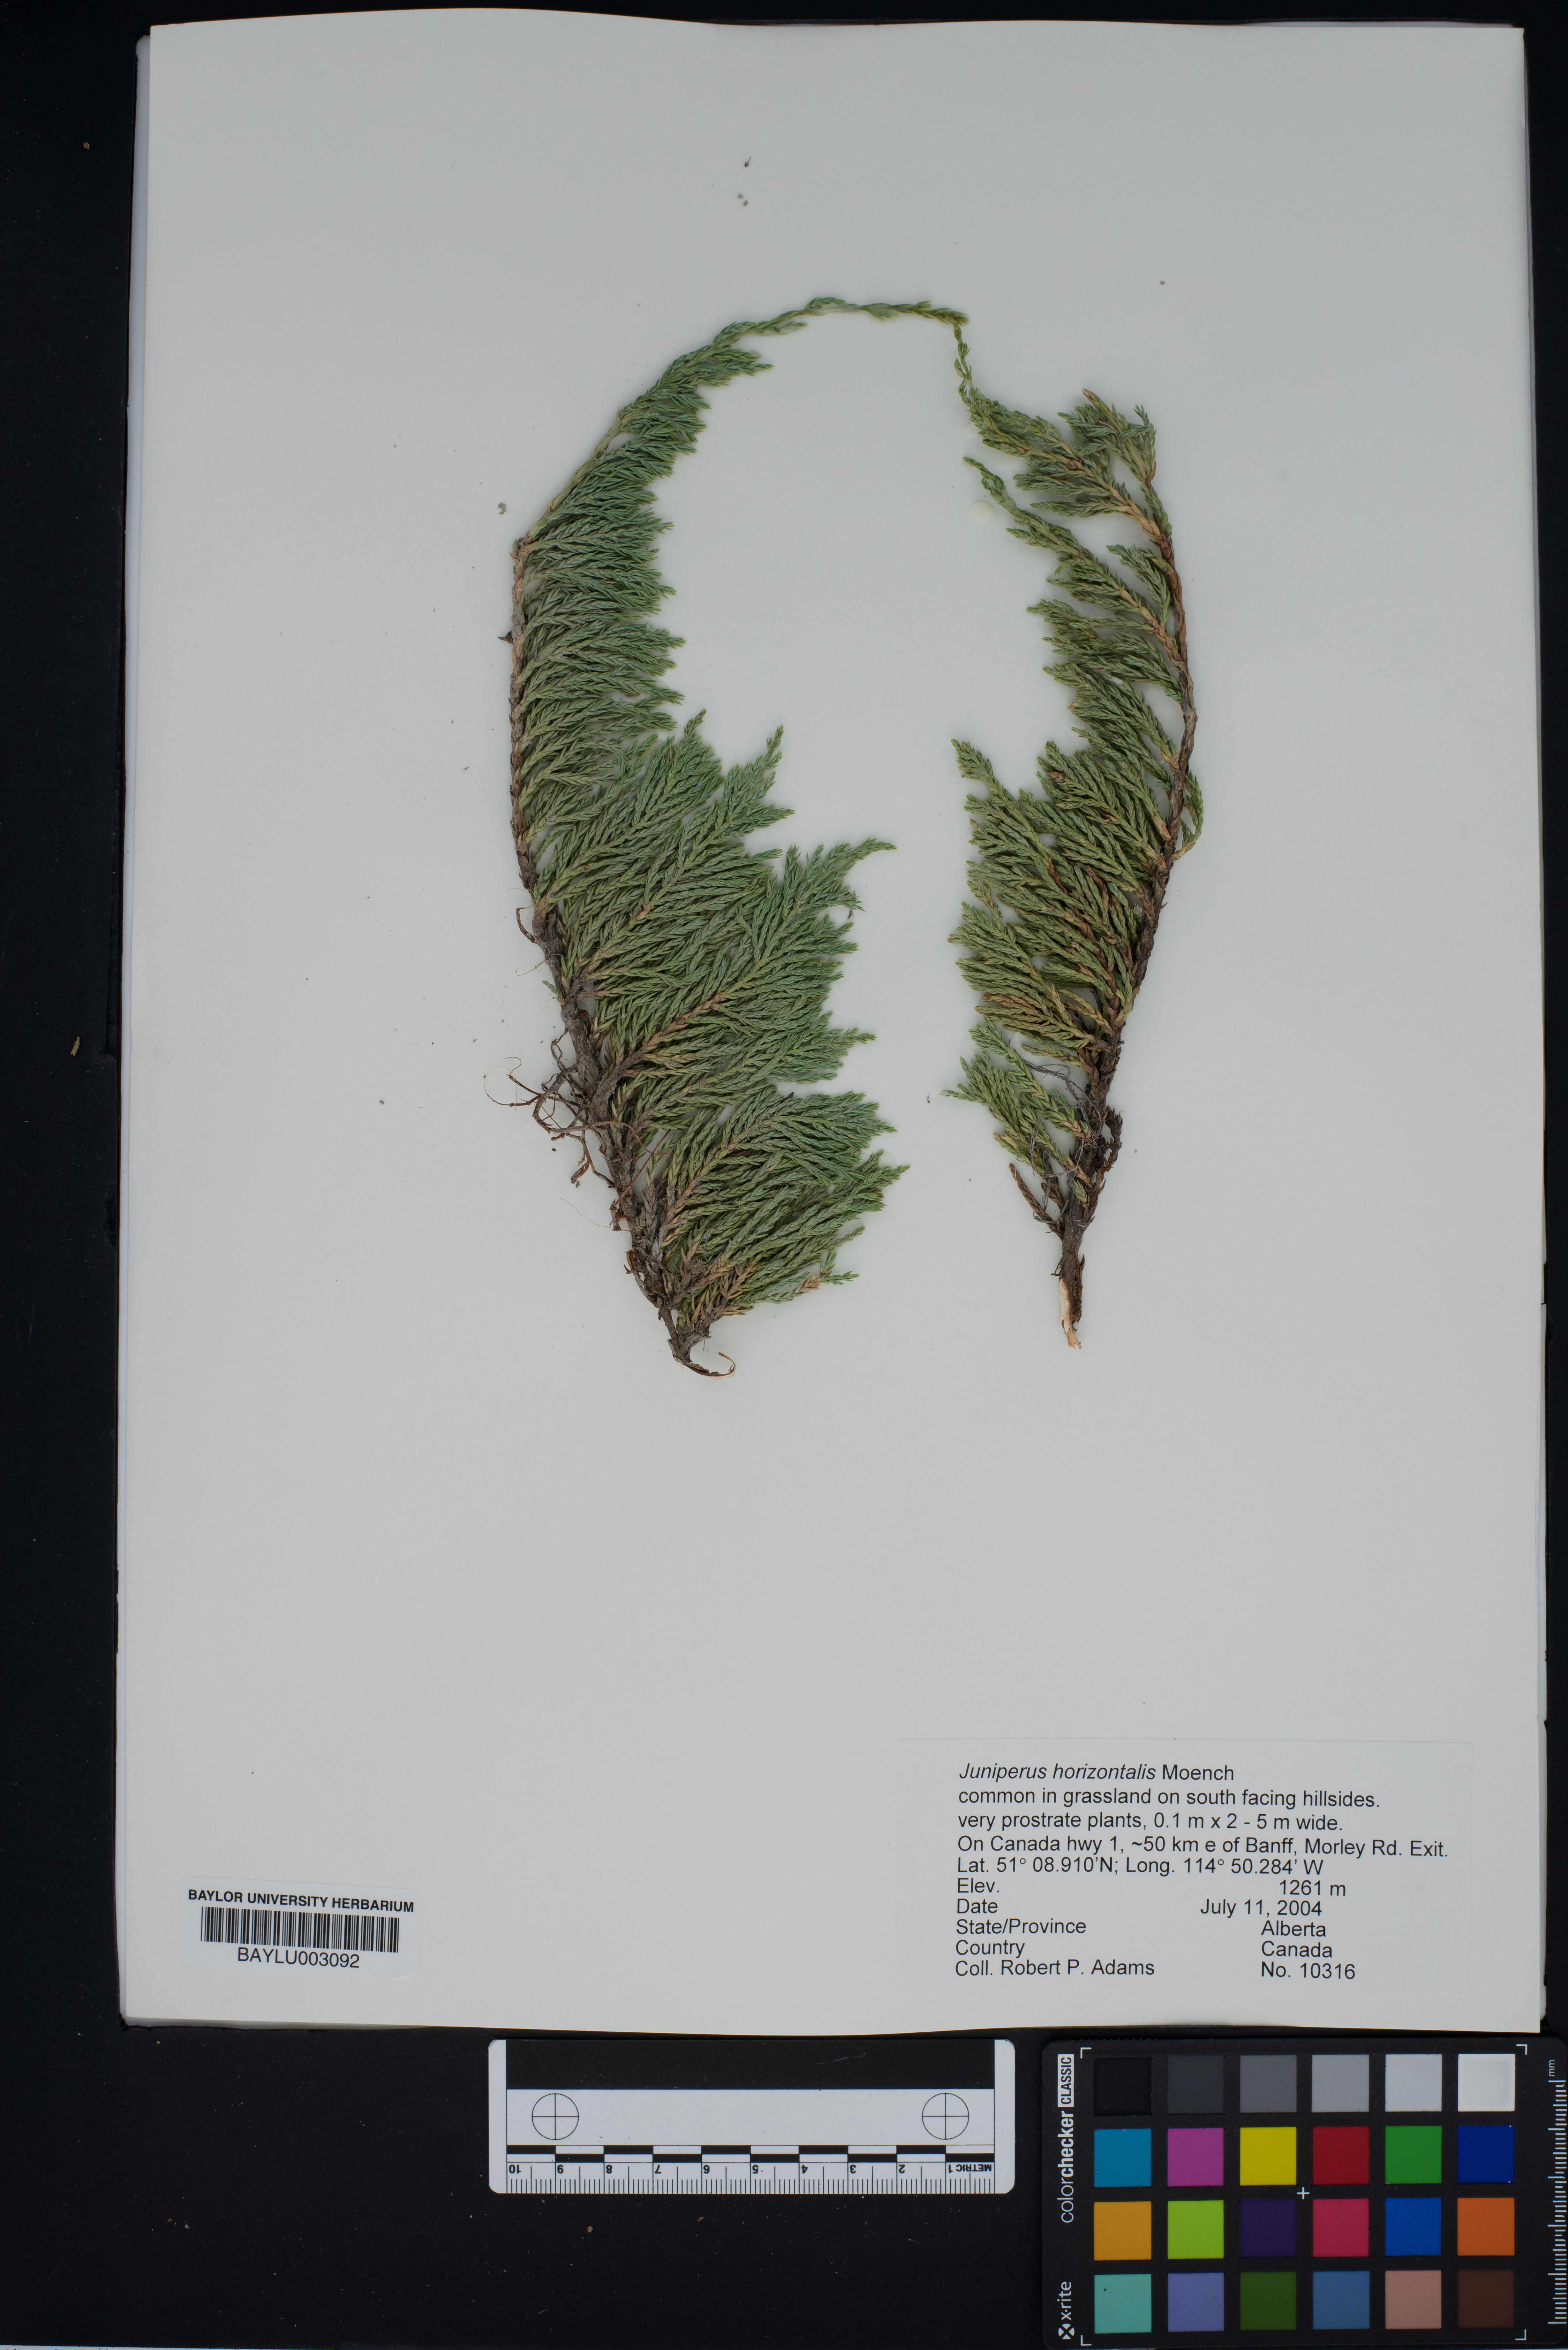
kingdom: Plantae
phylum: Tracheophyta
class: Pinopsida
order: Pinales
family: Cupressaceae
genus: Juniperus
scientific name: Juniperus horizontalis
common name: Creeping juniper
